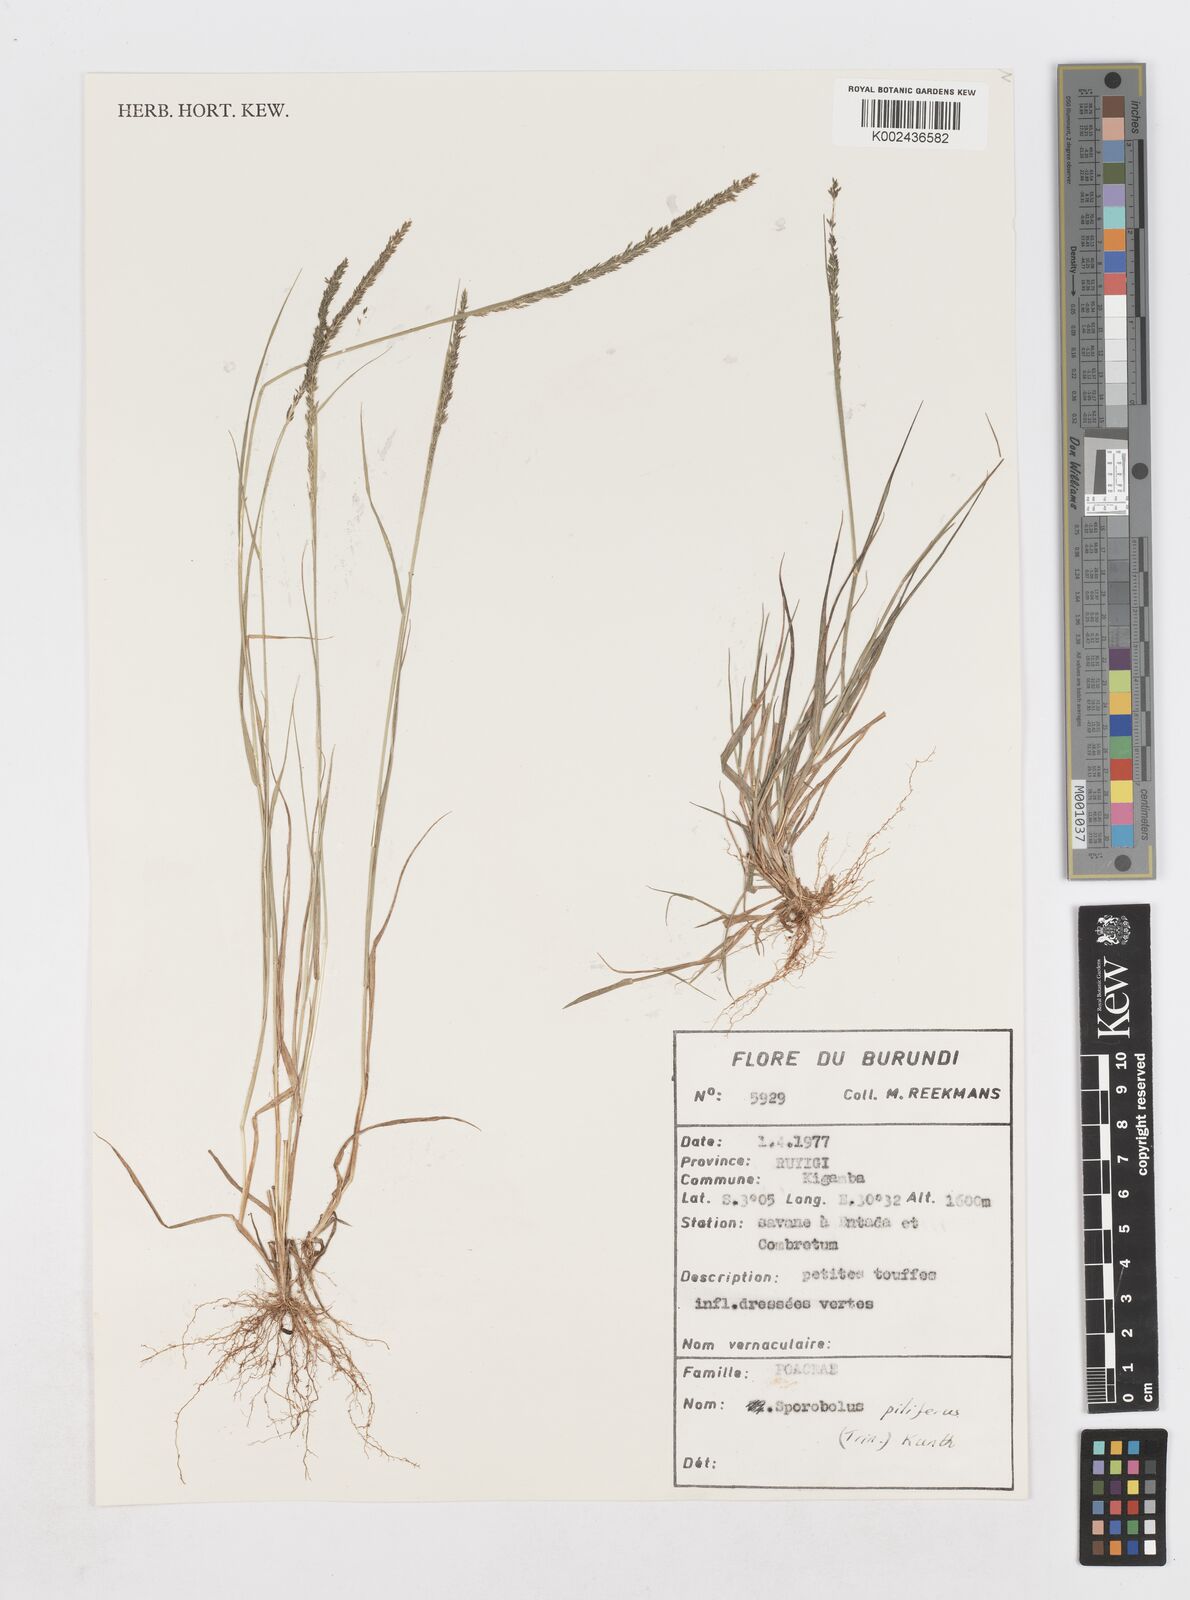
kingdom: Plantae
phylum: Tracheophyta
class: Liliopsida
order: Poales
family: Poaceae
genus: Sporobolus
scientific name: Sporobolus pilifer
